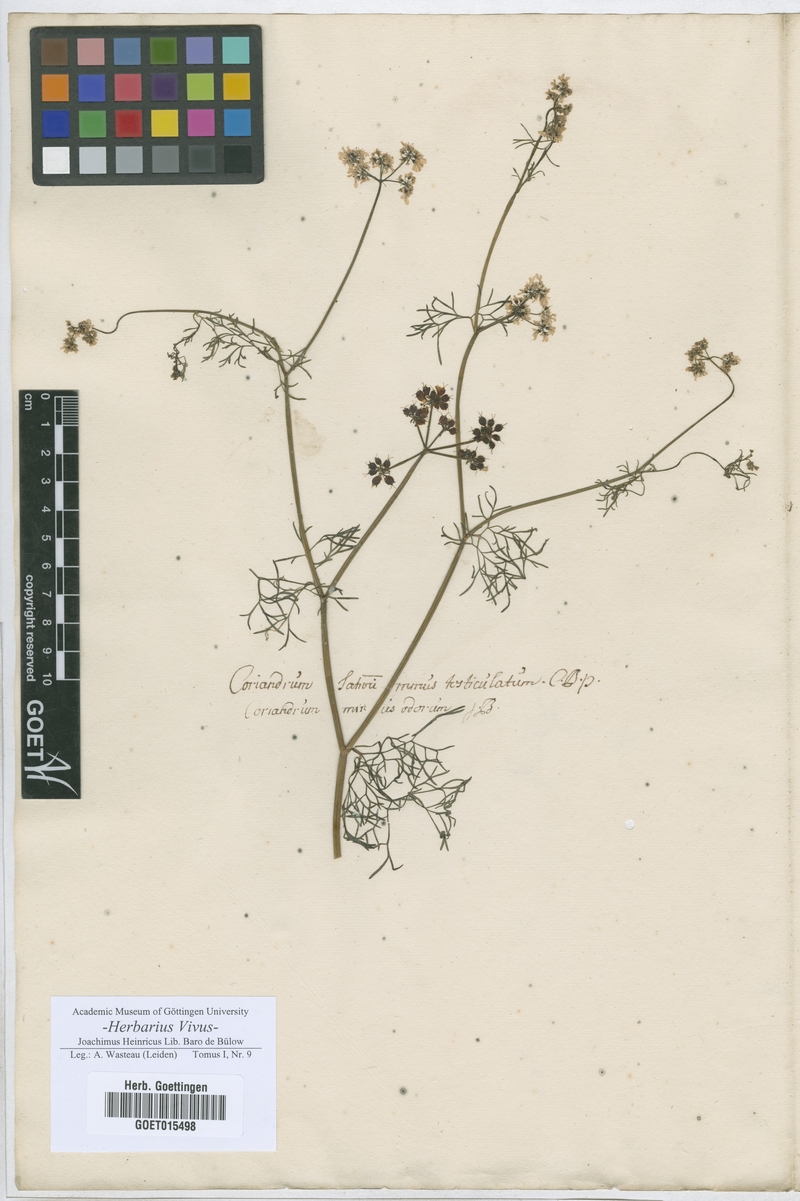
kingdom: Plantae
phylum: Tracheophyta
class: Magnoliopsida
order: Apiales
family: Apiaceae
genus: Coriandrum
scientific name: Coriandrum
